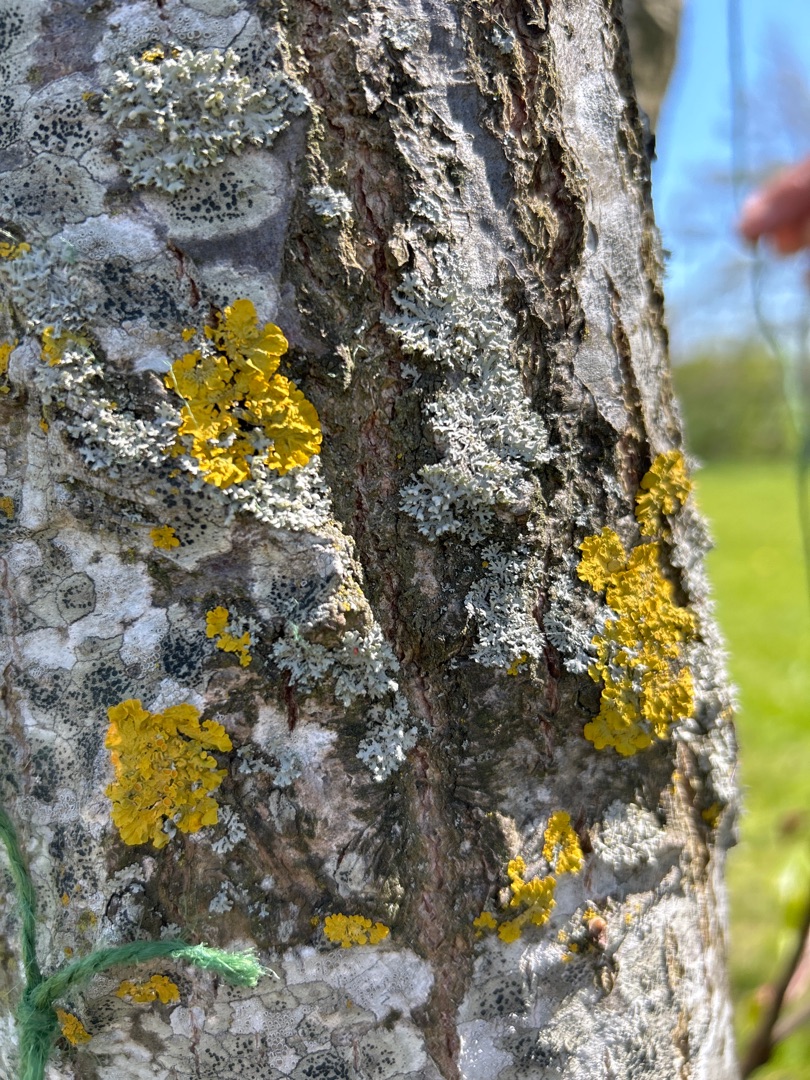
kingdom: Fungi
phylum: Ascomycota
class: Lecanoromycetes
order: Teloschistales
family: Teloschistaceae
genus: Xanthoria
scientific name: Xanthoria parietina
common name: Almindelig væggelav
